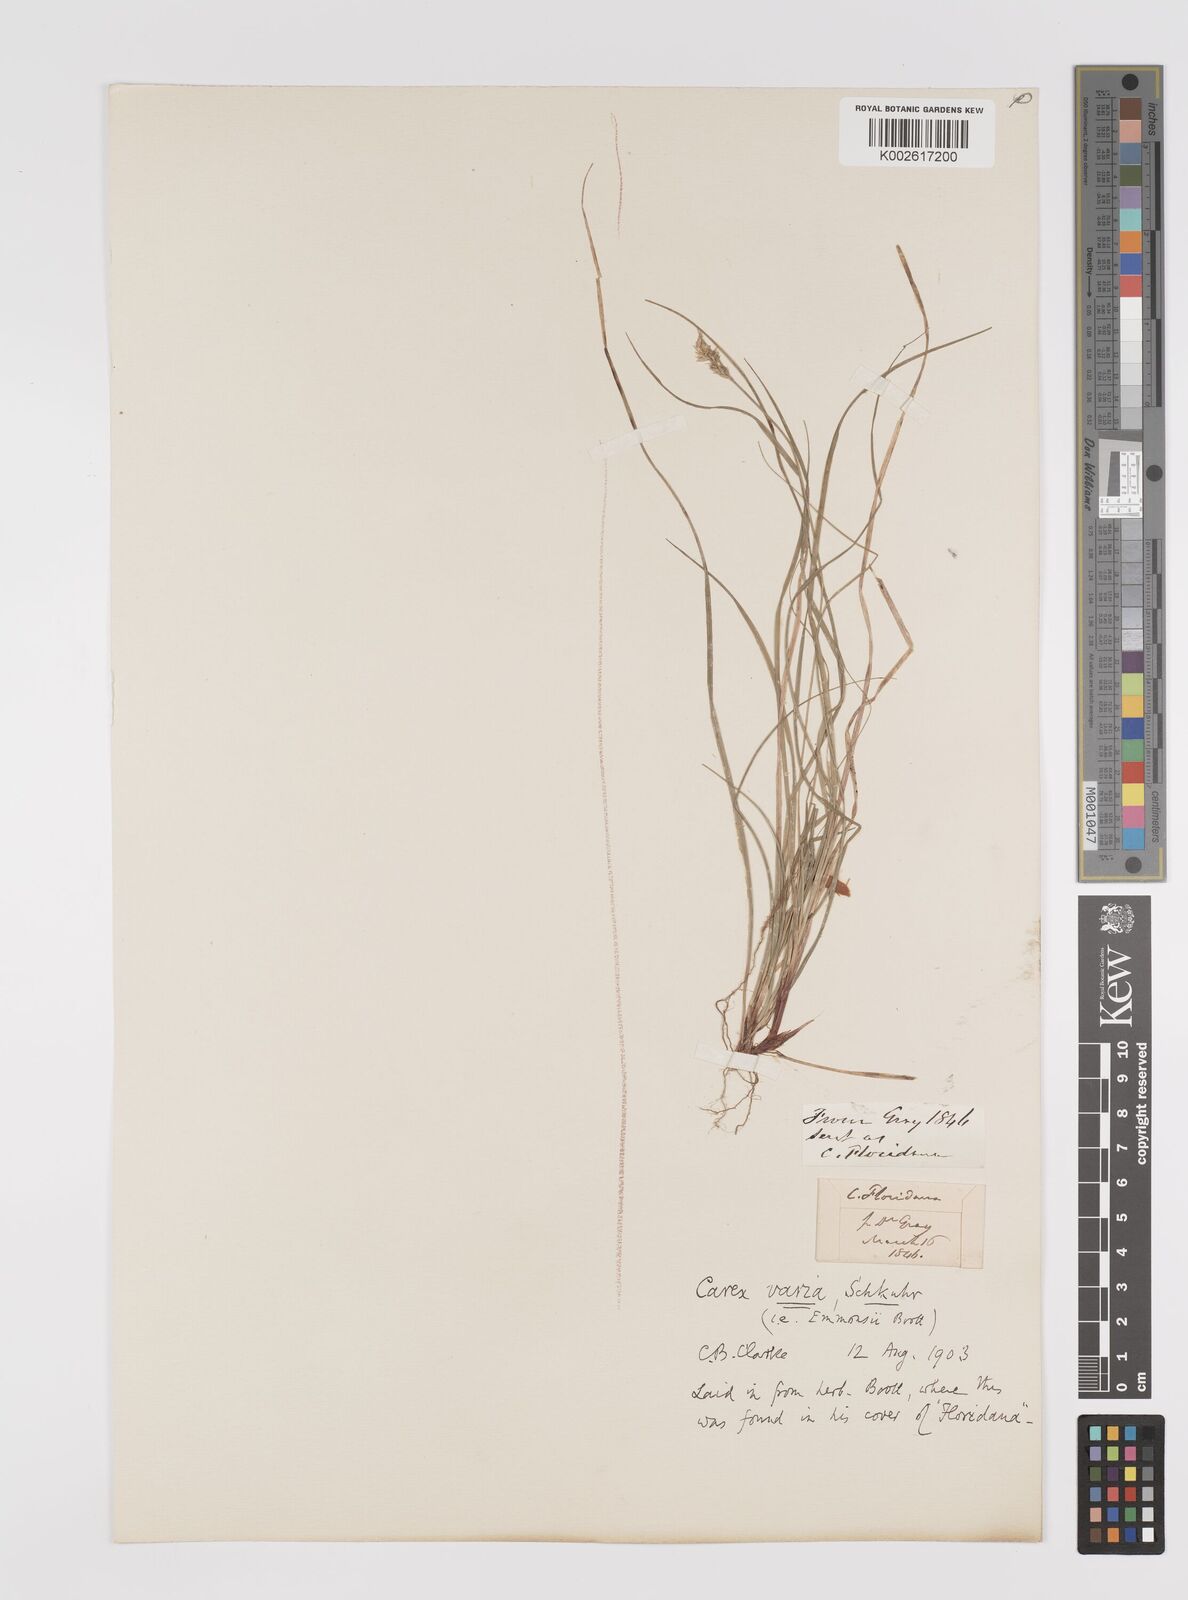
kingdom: Plantae
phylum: Tracheophyta
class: Liliopsida
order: Poales
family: Cyperaceae
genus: Carex
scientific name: Carex albicans
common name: Bellow-beaked sedge
